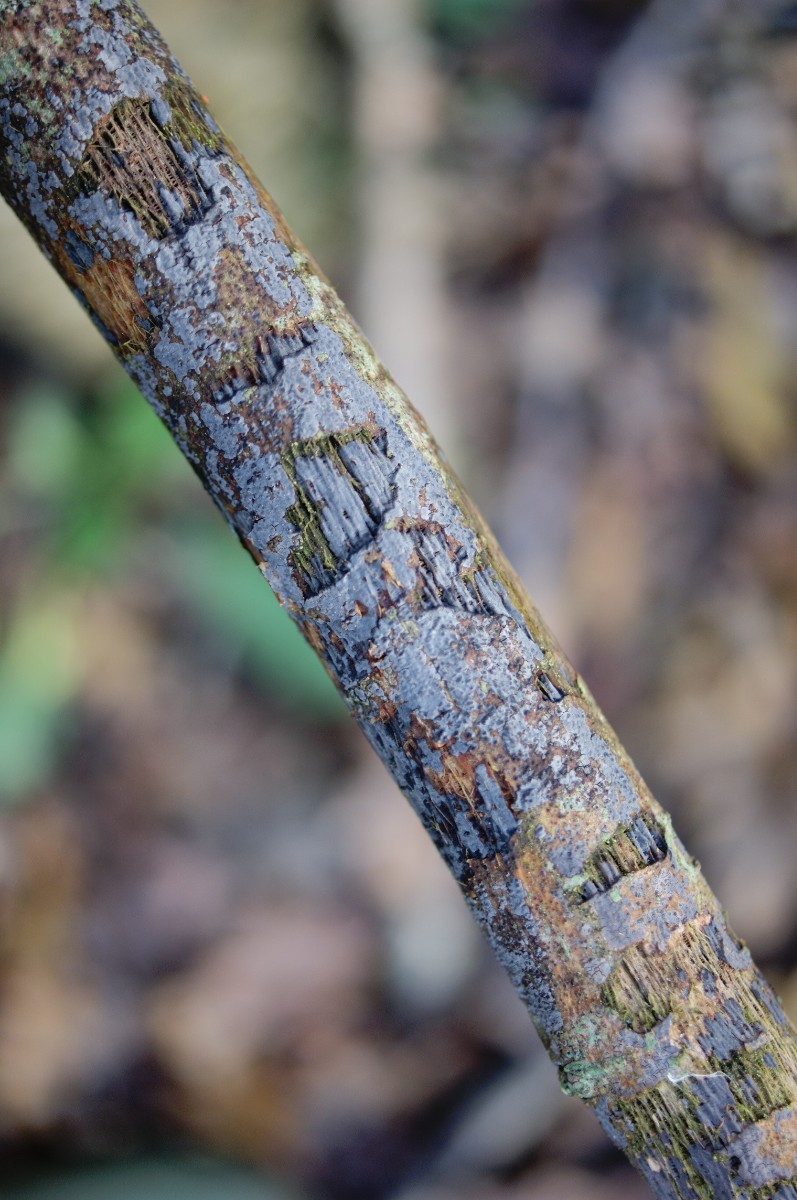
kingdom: Fungi
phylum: Basidiomycota
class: Agaricomycetes
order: Russulales
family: Peniophoraceae
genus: Peniophora
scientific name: Peniophora lycii
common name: grynet voksskind
